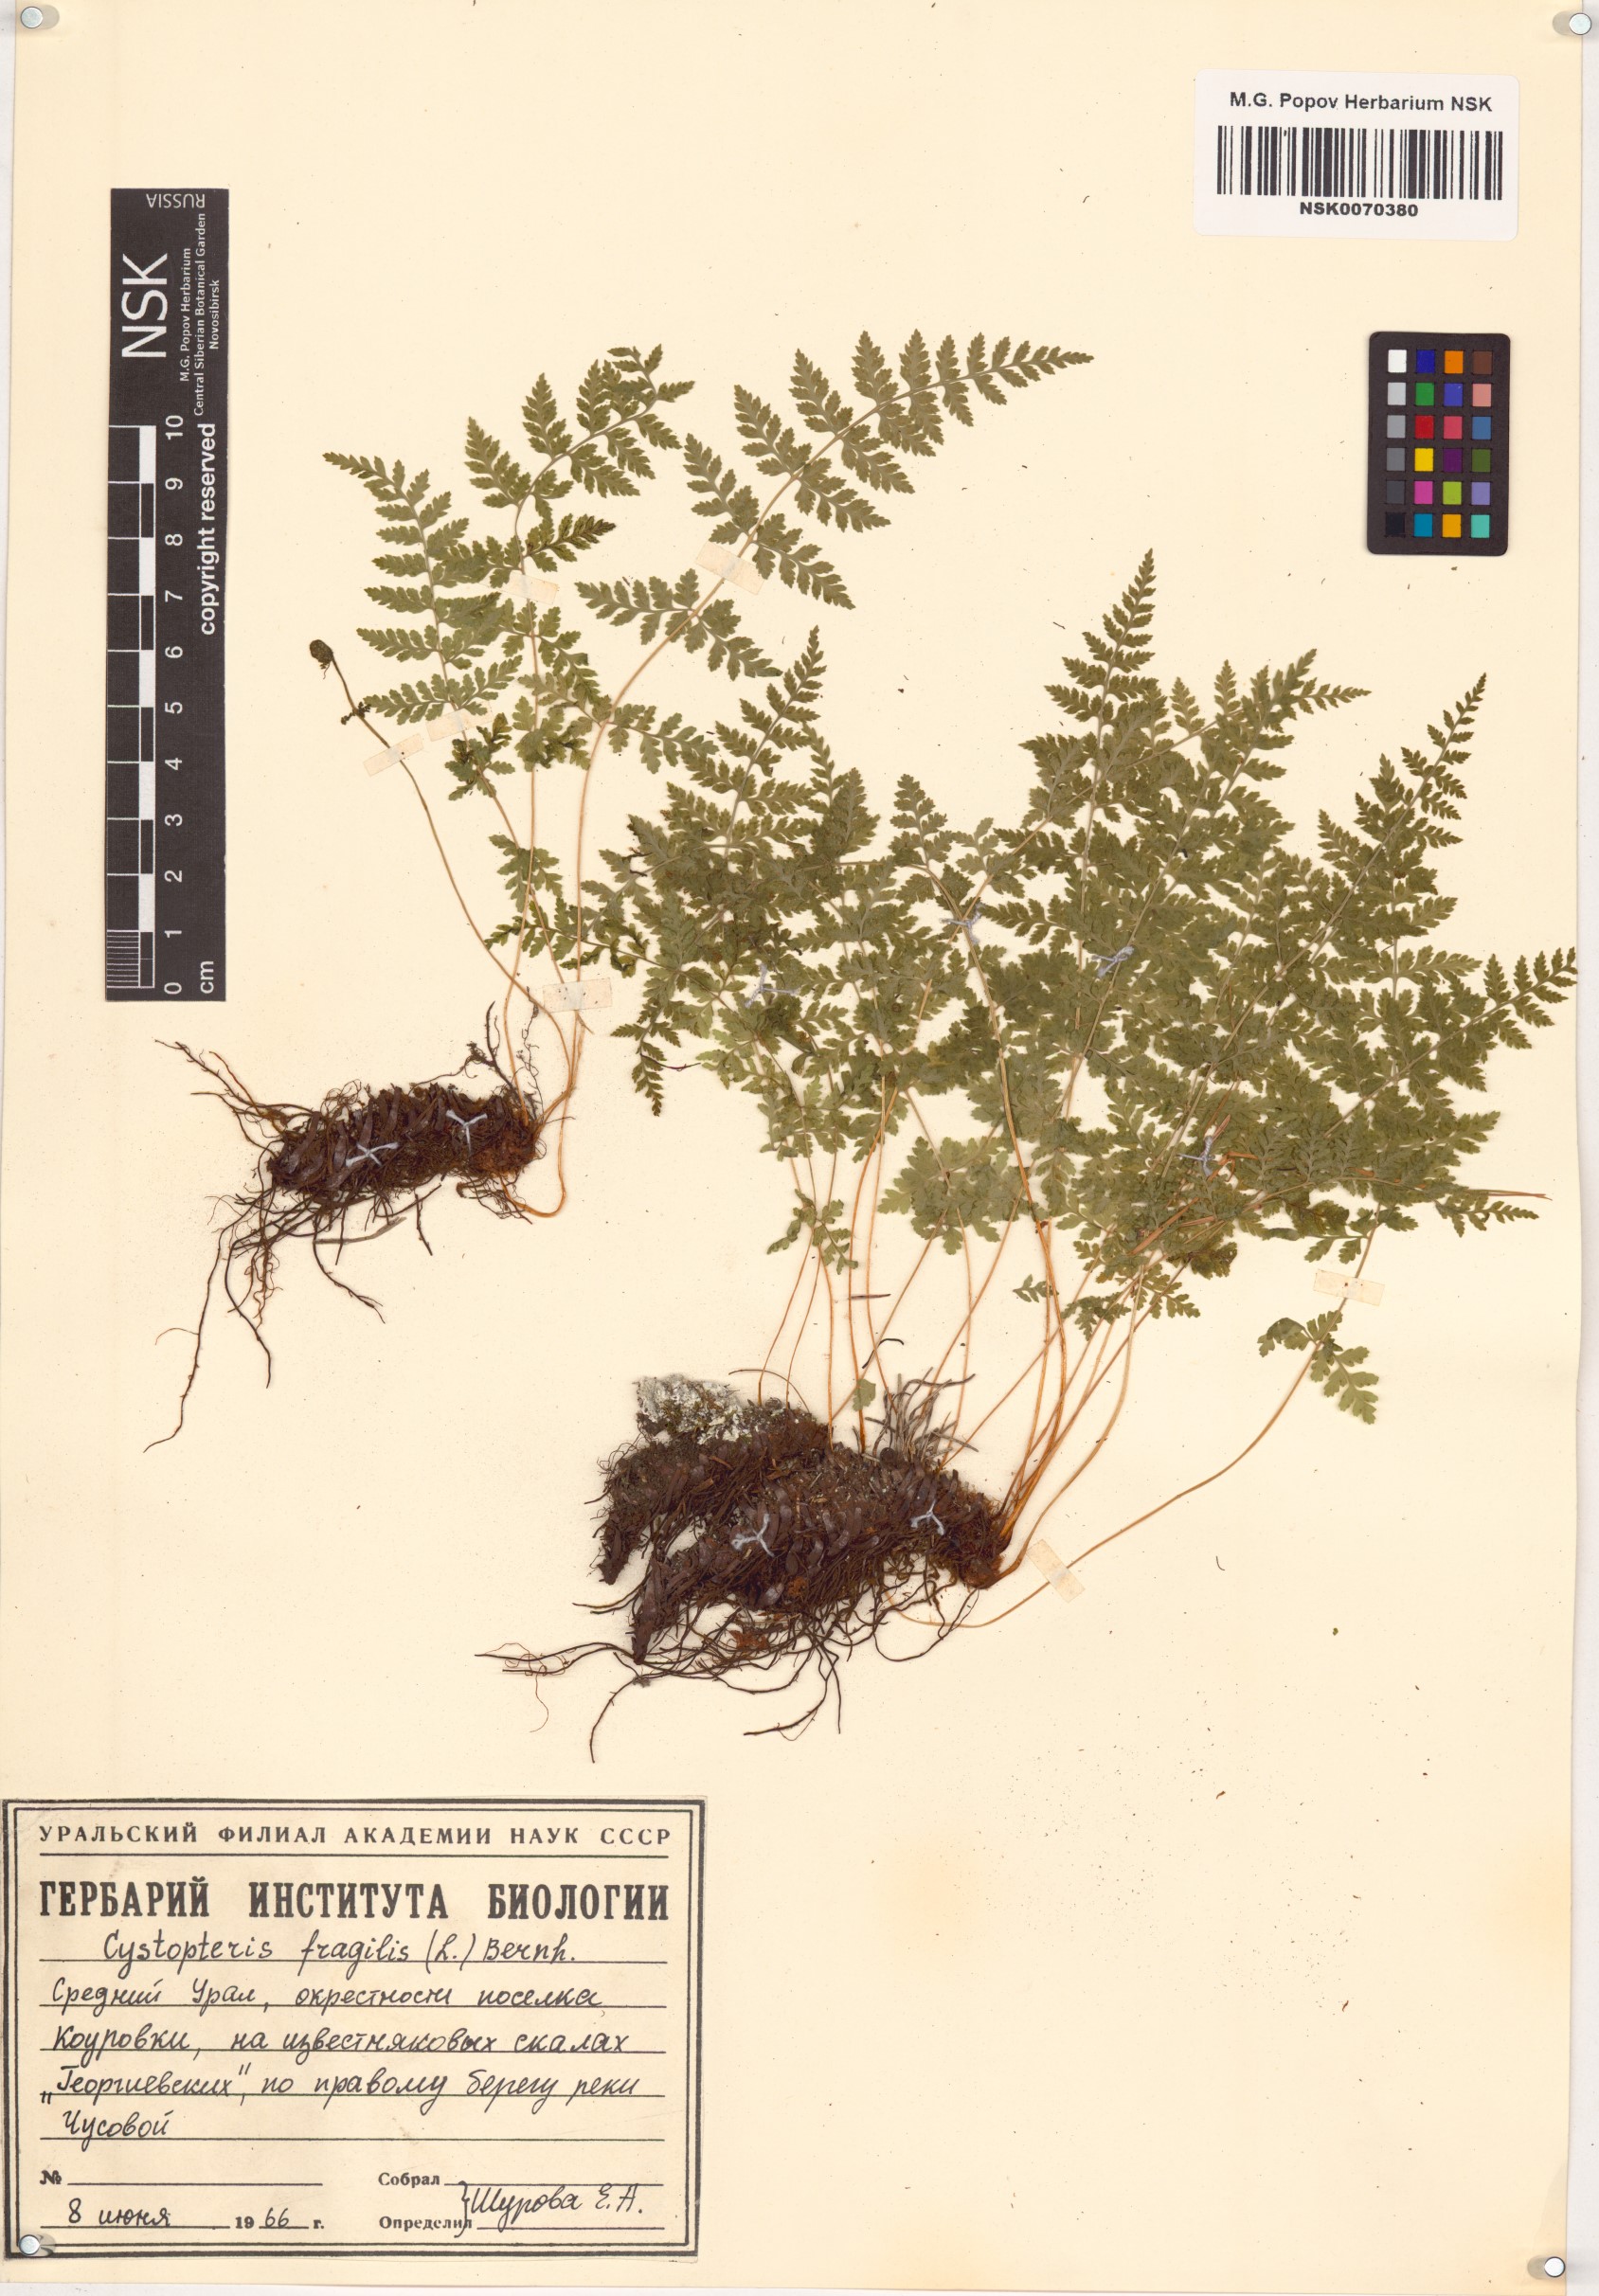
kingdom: Plantae
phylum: Tracheophyta
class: Polypodiopsida
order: Polypodiales
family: Cystopteridaceae
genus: Cystopteris
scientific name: Cystopteris fragilis
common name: Brittle bladder fern
